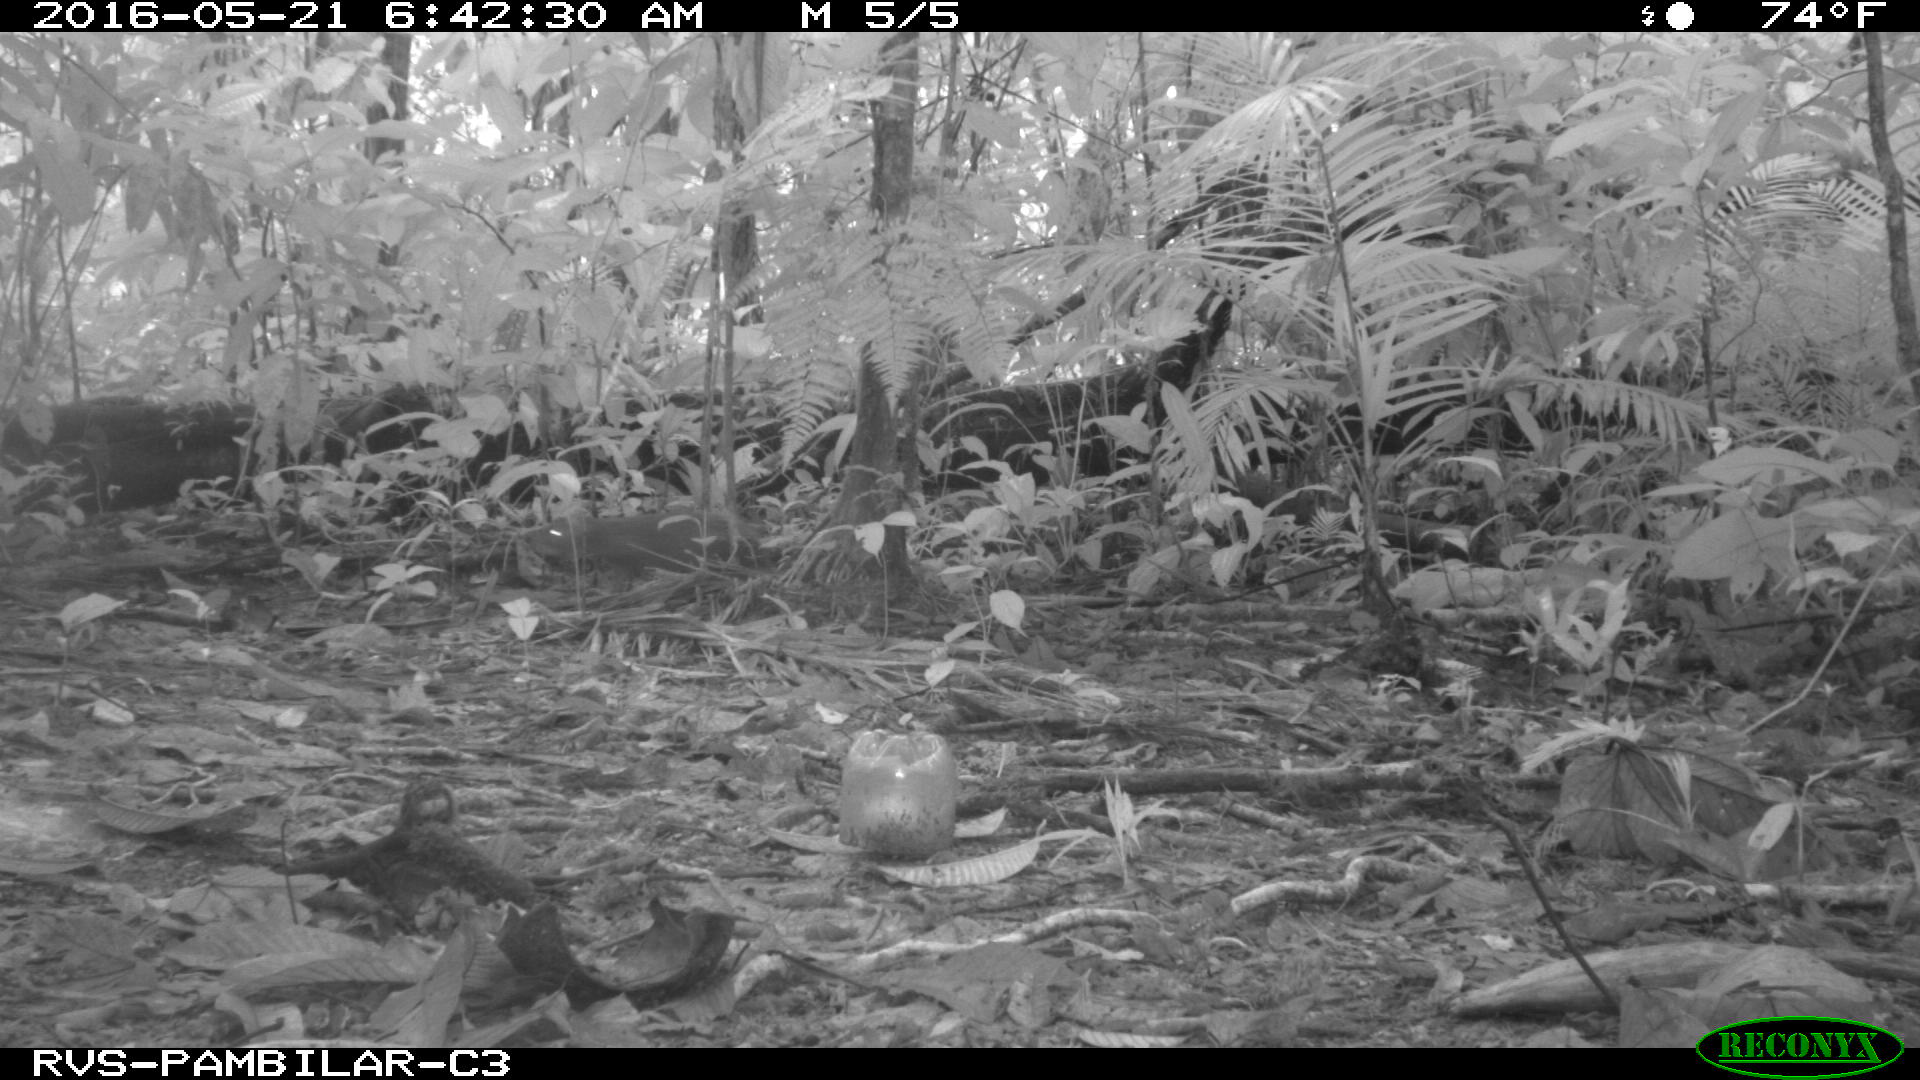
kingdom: Animalia
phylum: Chordata
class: Mammalia
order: Rodentia
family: Dasyproctidae
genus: Dasyprocta
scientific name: Dasyprocta punctata
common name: Central american agouti
